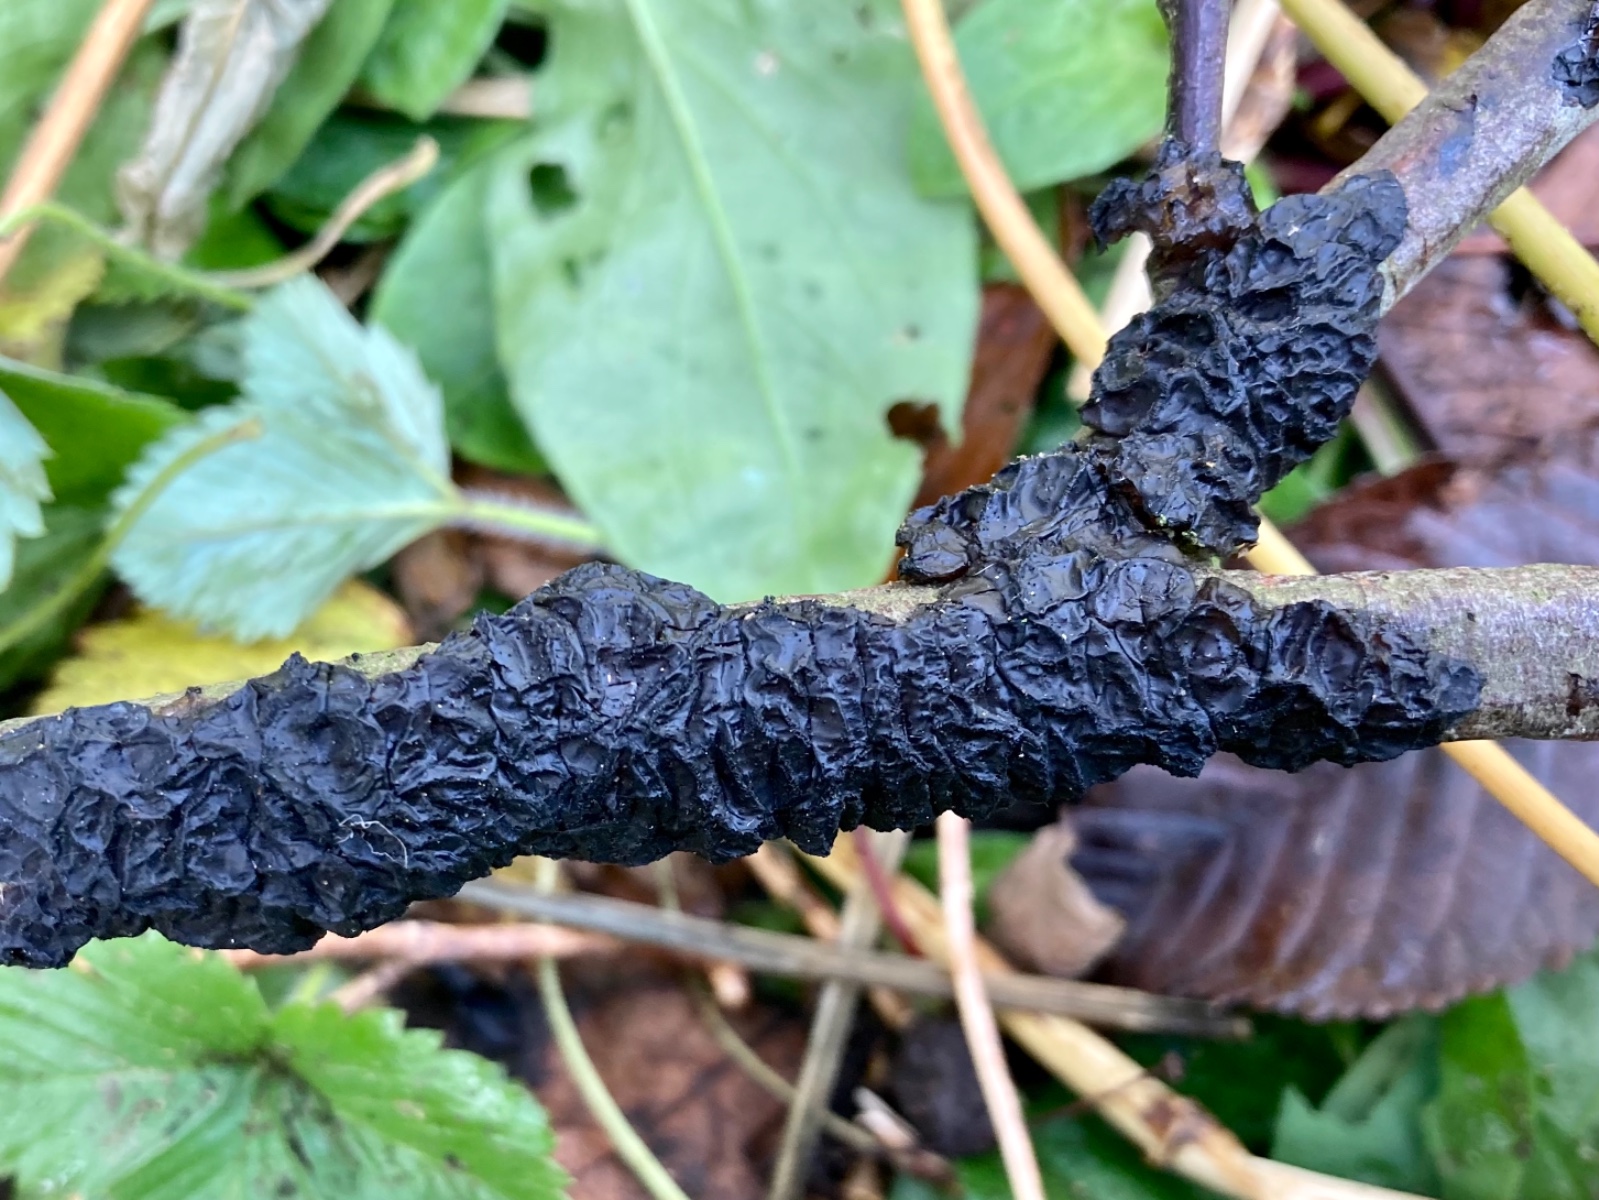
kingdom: Fungi
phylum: Basidiomycota
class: Agaricomycetes
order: Auriculariales
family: Auriculariaceae
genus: Exidia
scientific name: Exidia nigricans
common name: almindelig bævretop
